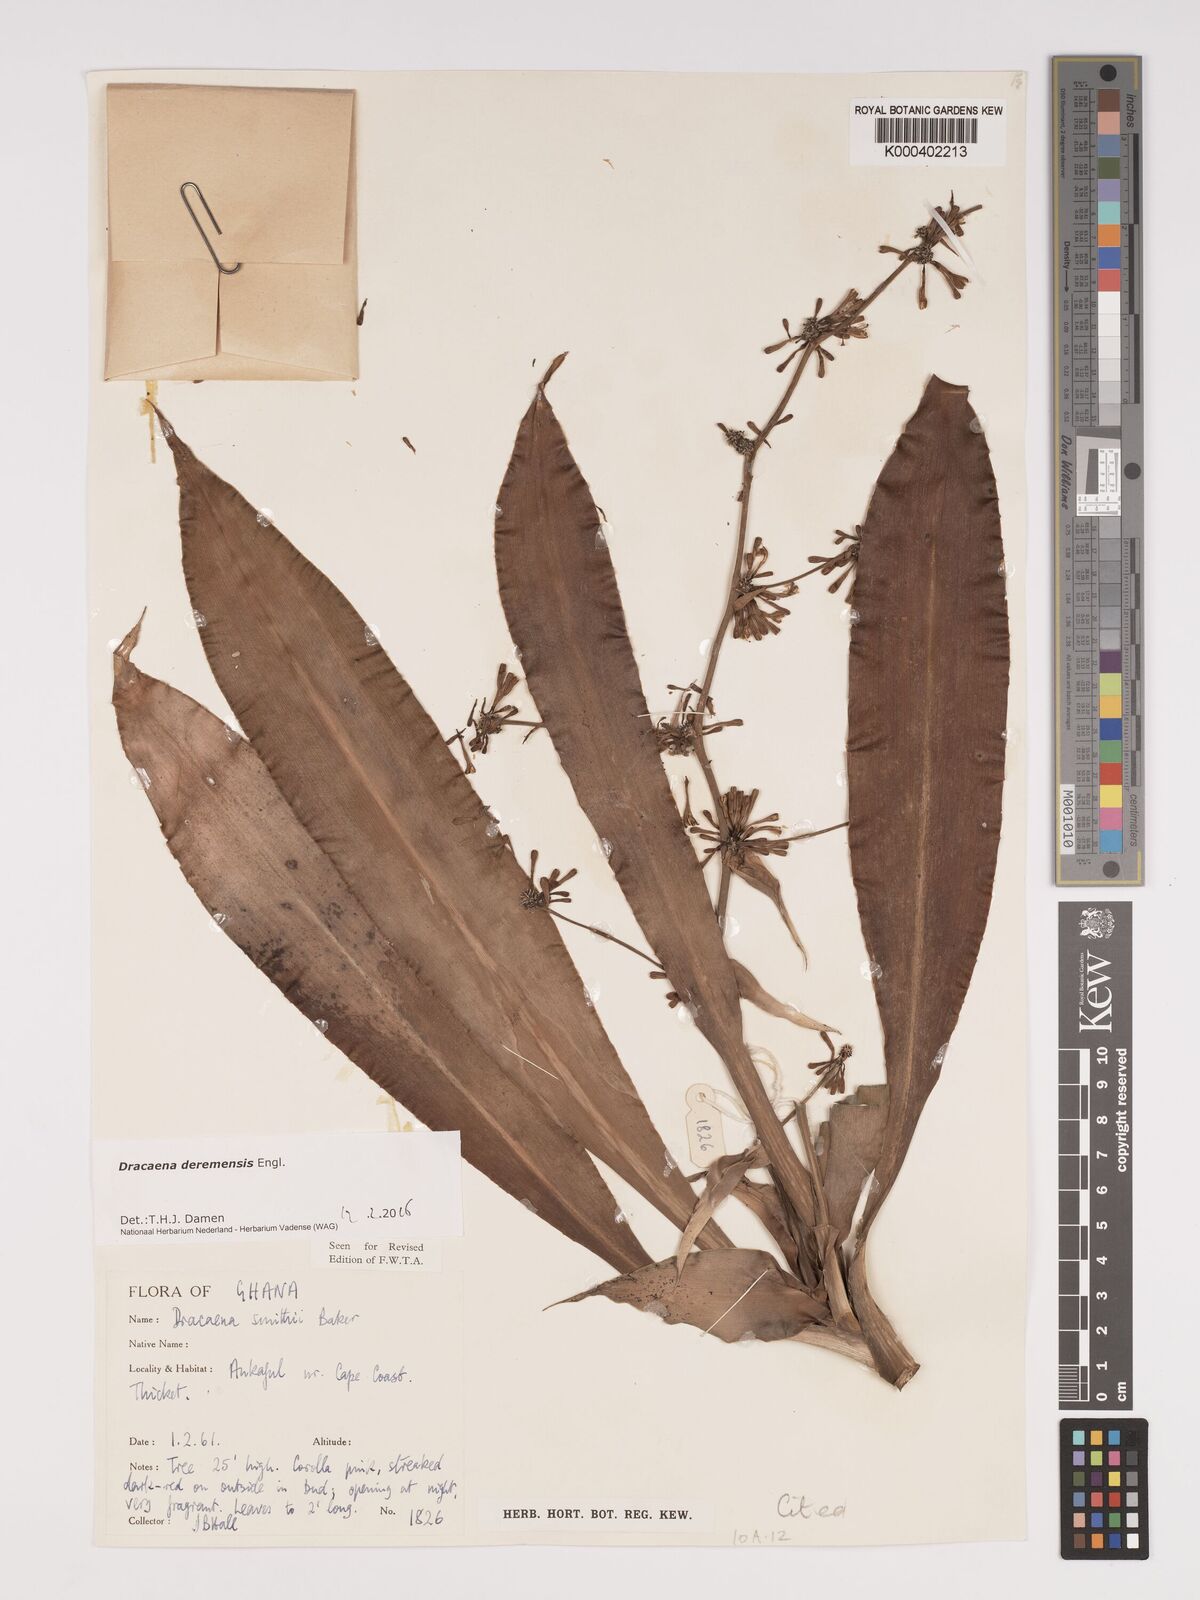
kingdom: Plantae
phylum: Tracheophyta
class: Liliopsida
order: Asparagales
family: Asparagaceae
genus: Dracaena
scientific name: Dracaena fragrans
